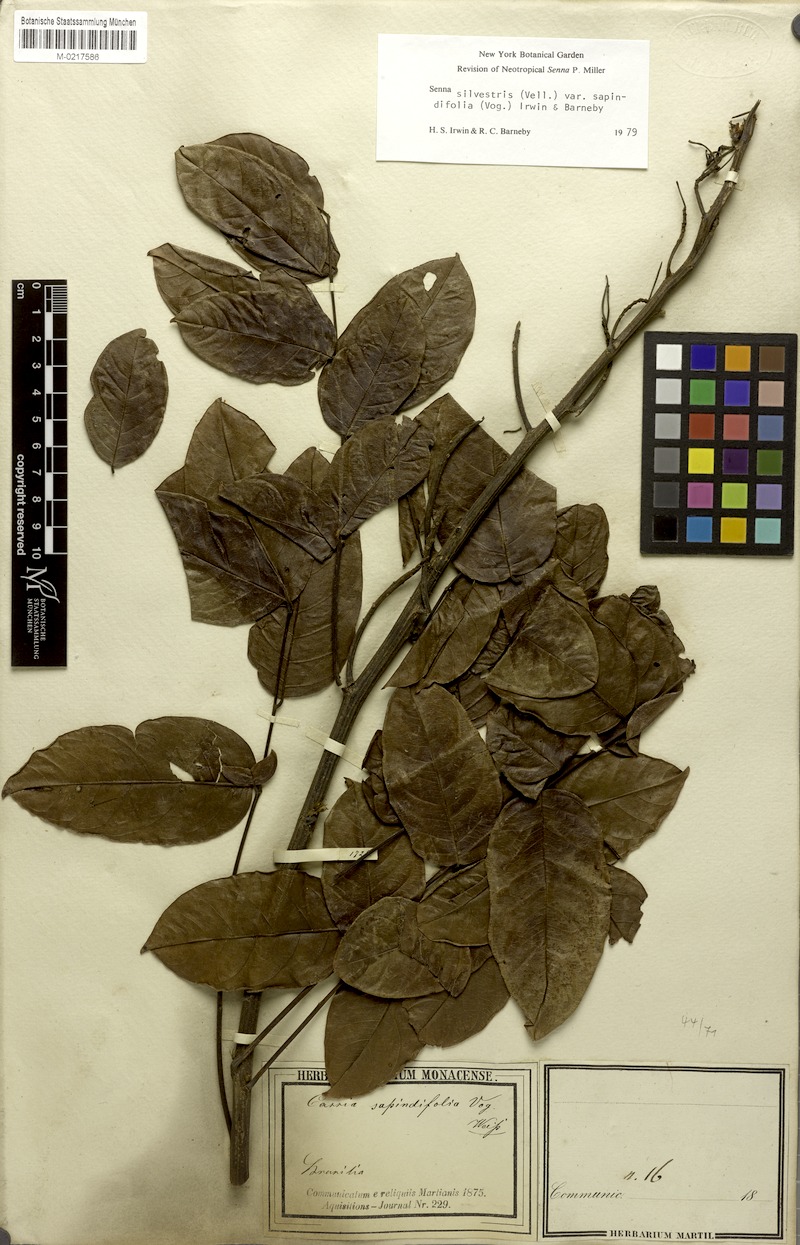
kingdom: Plantae
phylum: Tracheophyta
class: Magnoliopsida
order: Fabales
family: Fabaceae
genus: Senna
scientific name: Senna silvestris
